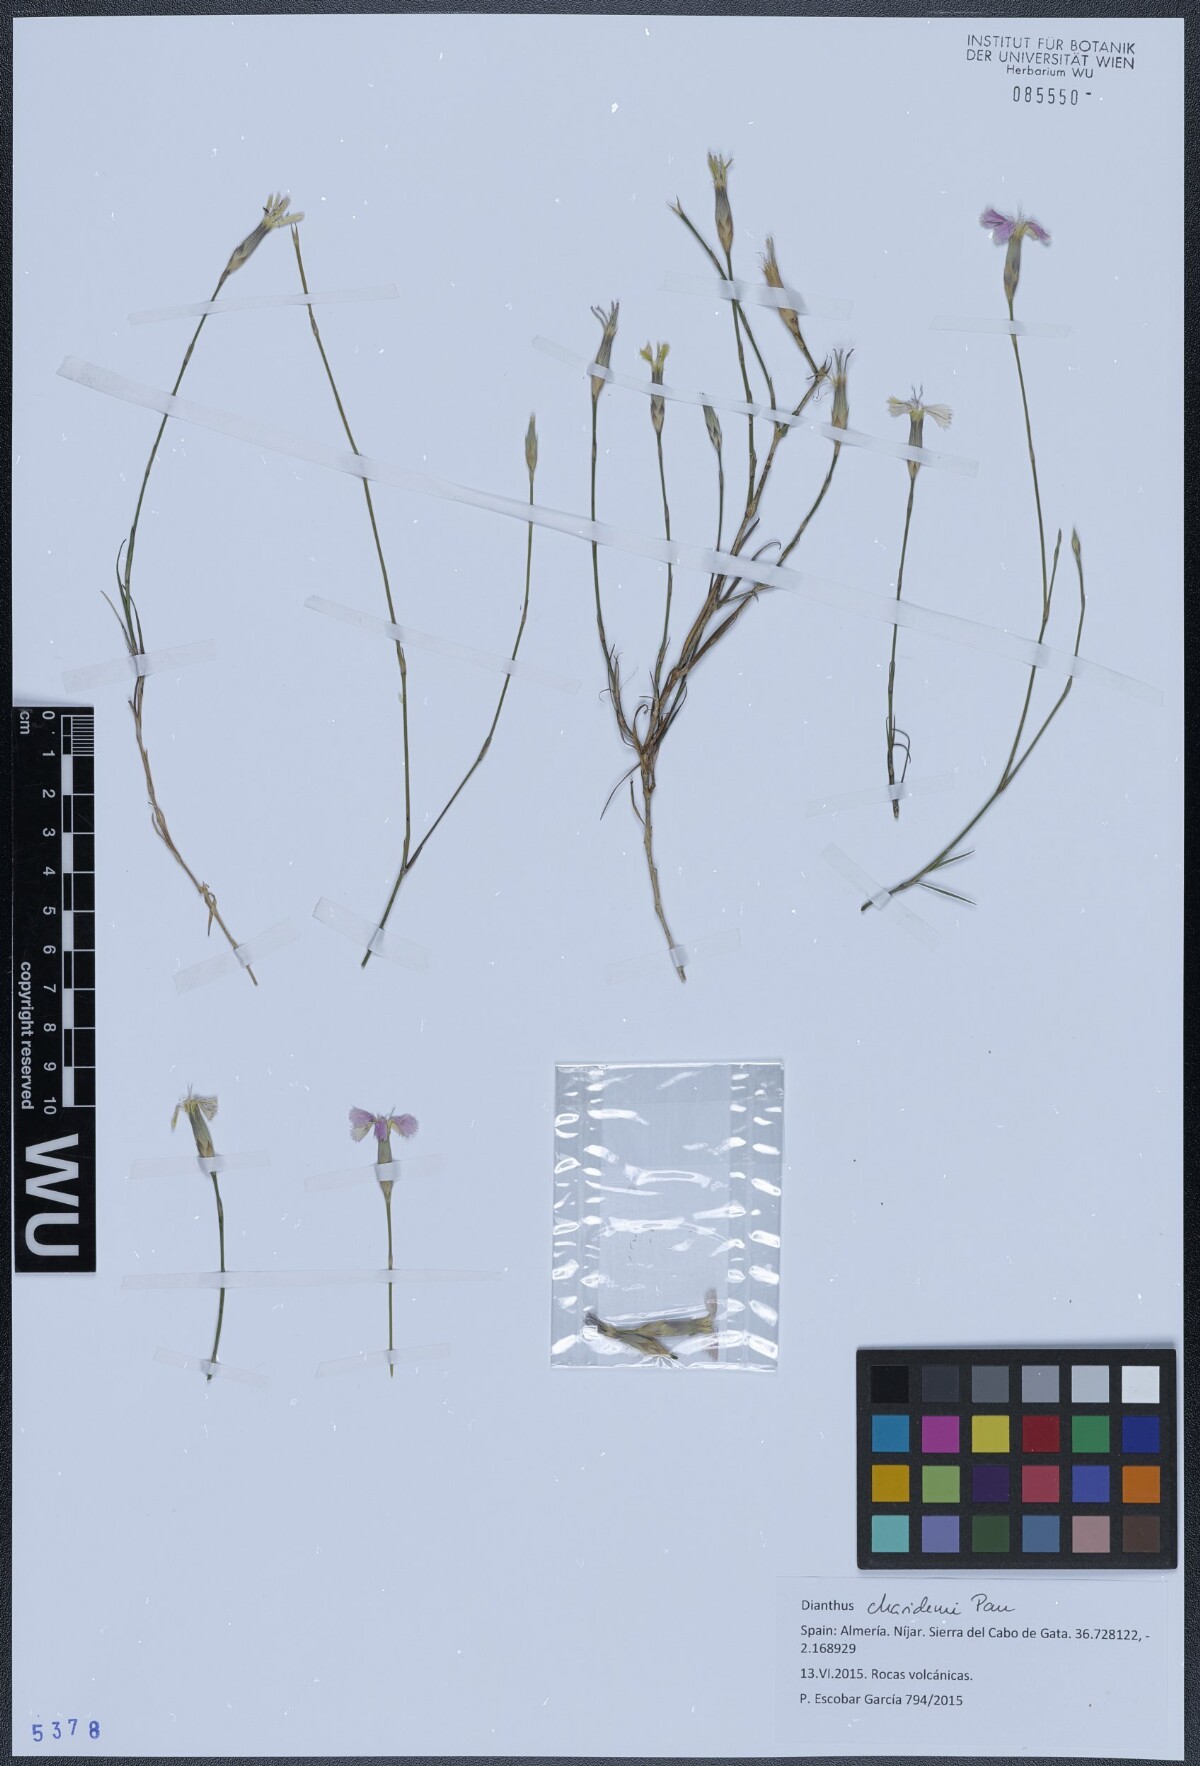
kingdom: Plantae
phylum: Tracheophyta
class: Magnoliopsida
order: Caryophyllales
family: Caryophyllaceae
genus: Dianthus
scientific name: Dianthus charidemi
